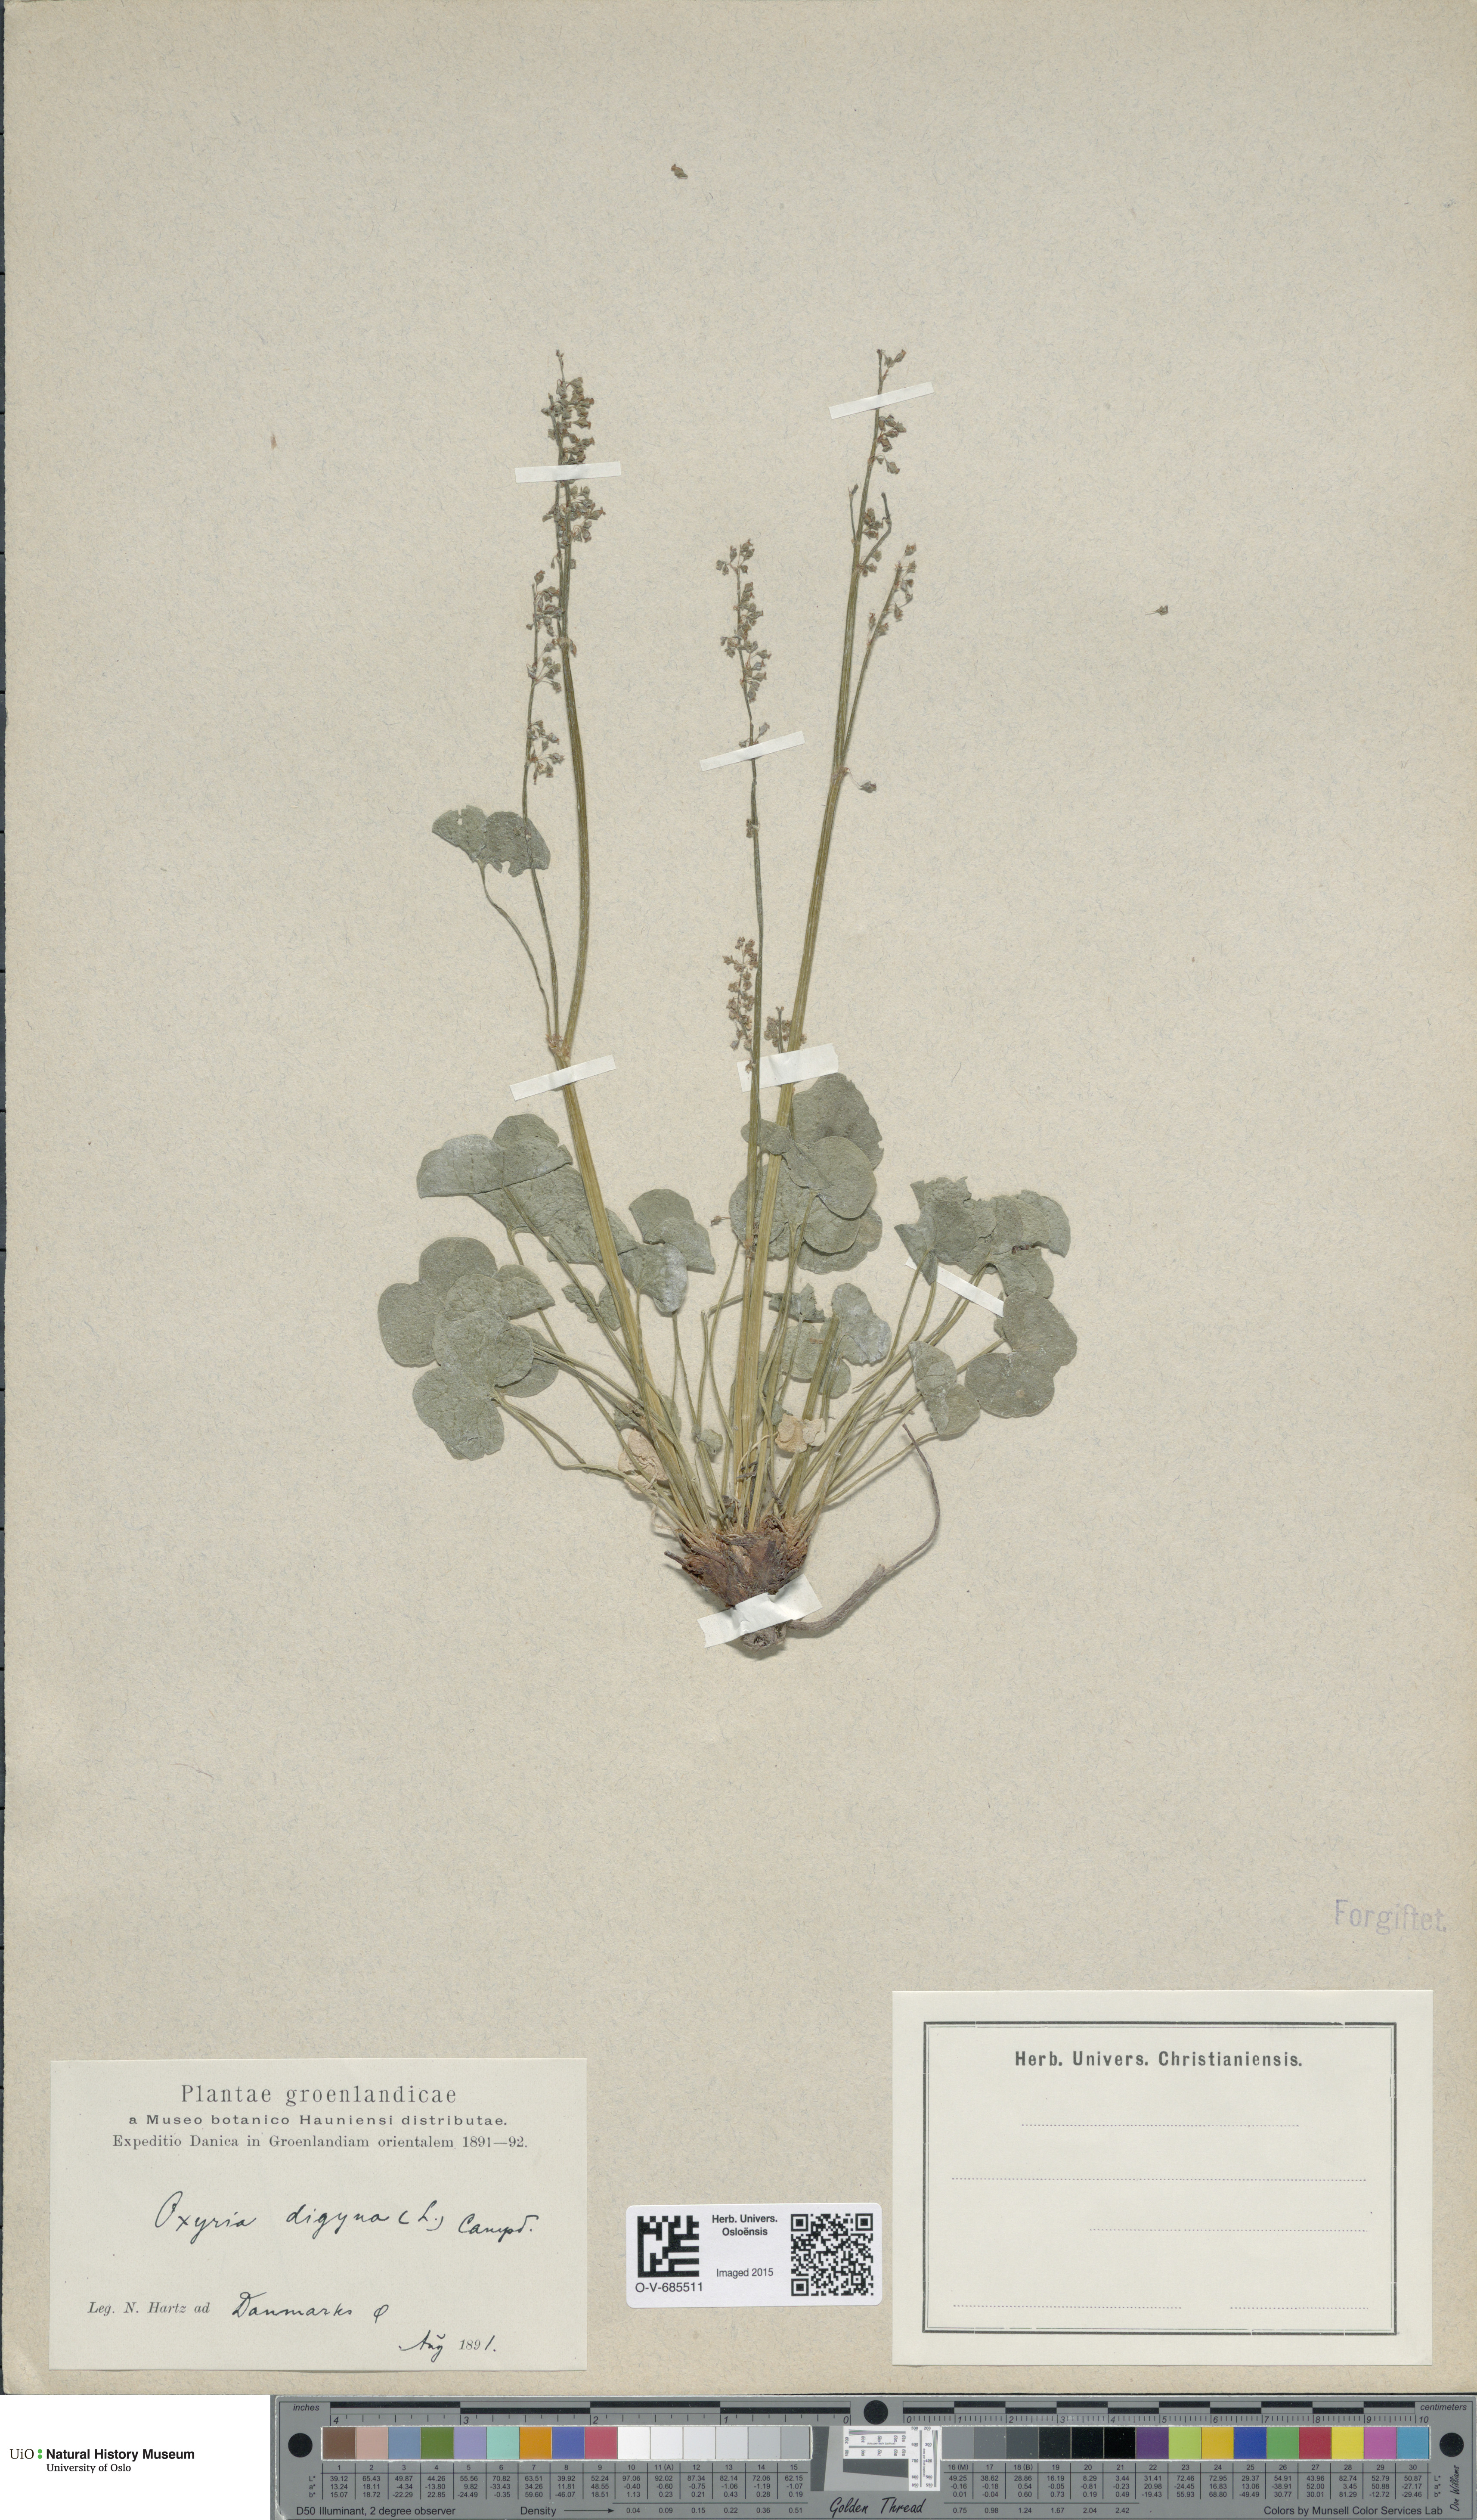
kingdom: Plantae
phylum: Tracheophyta
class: Magnoliopsida
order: Caryophyllales
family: Polygonaceae
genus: Oxyria
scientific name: Oxyria digyna
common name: Alpine mountain-sorrel
